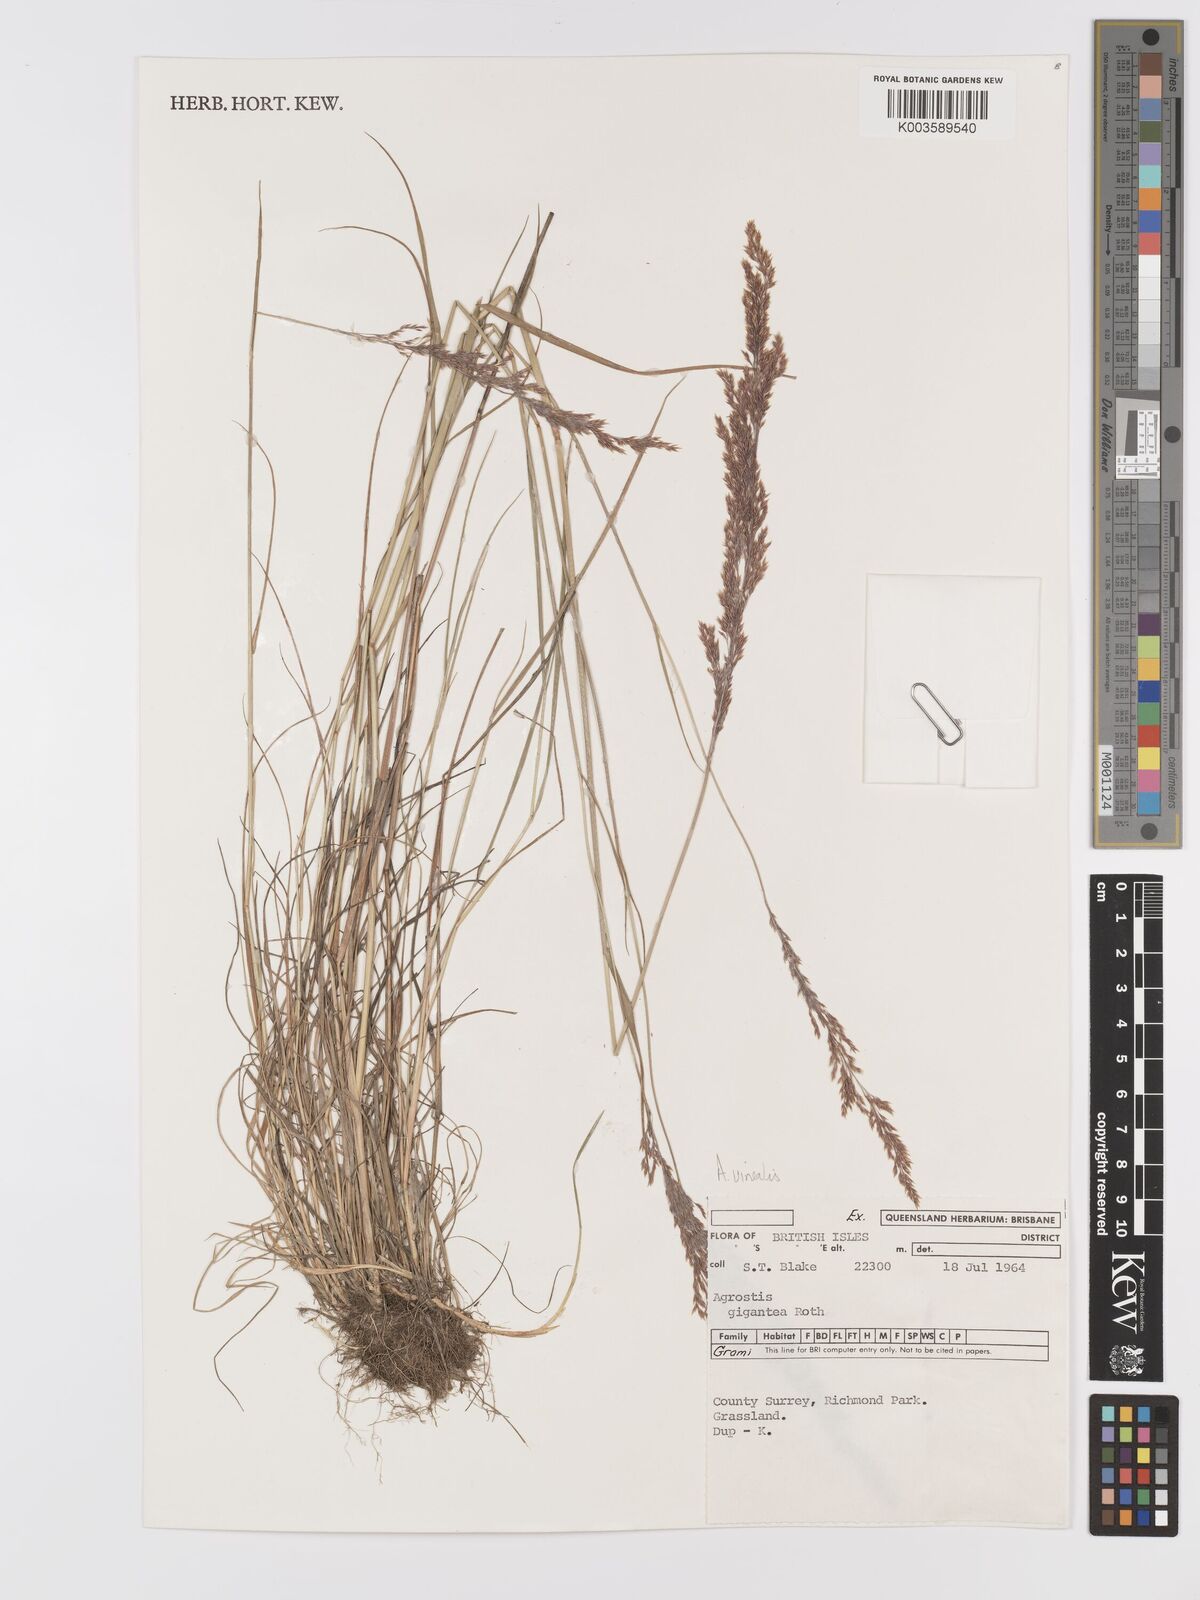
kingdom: Plantae
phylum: Tracheophyta
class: Liliopsida
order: Poales
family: Poaceae
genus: Agrostis
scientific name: Agrostis
